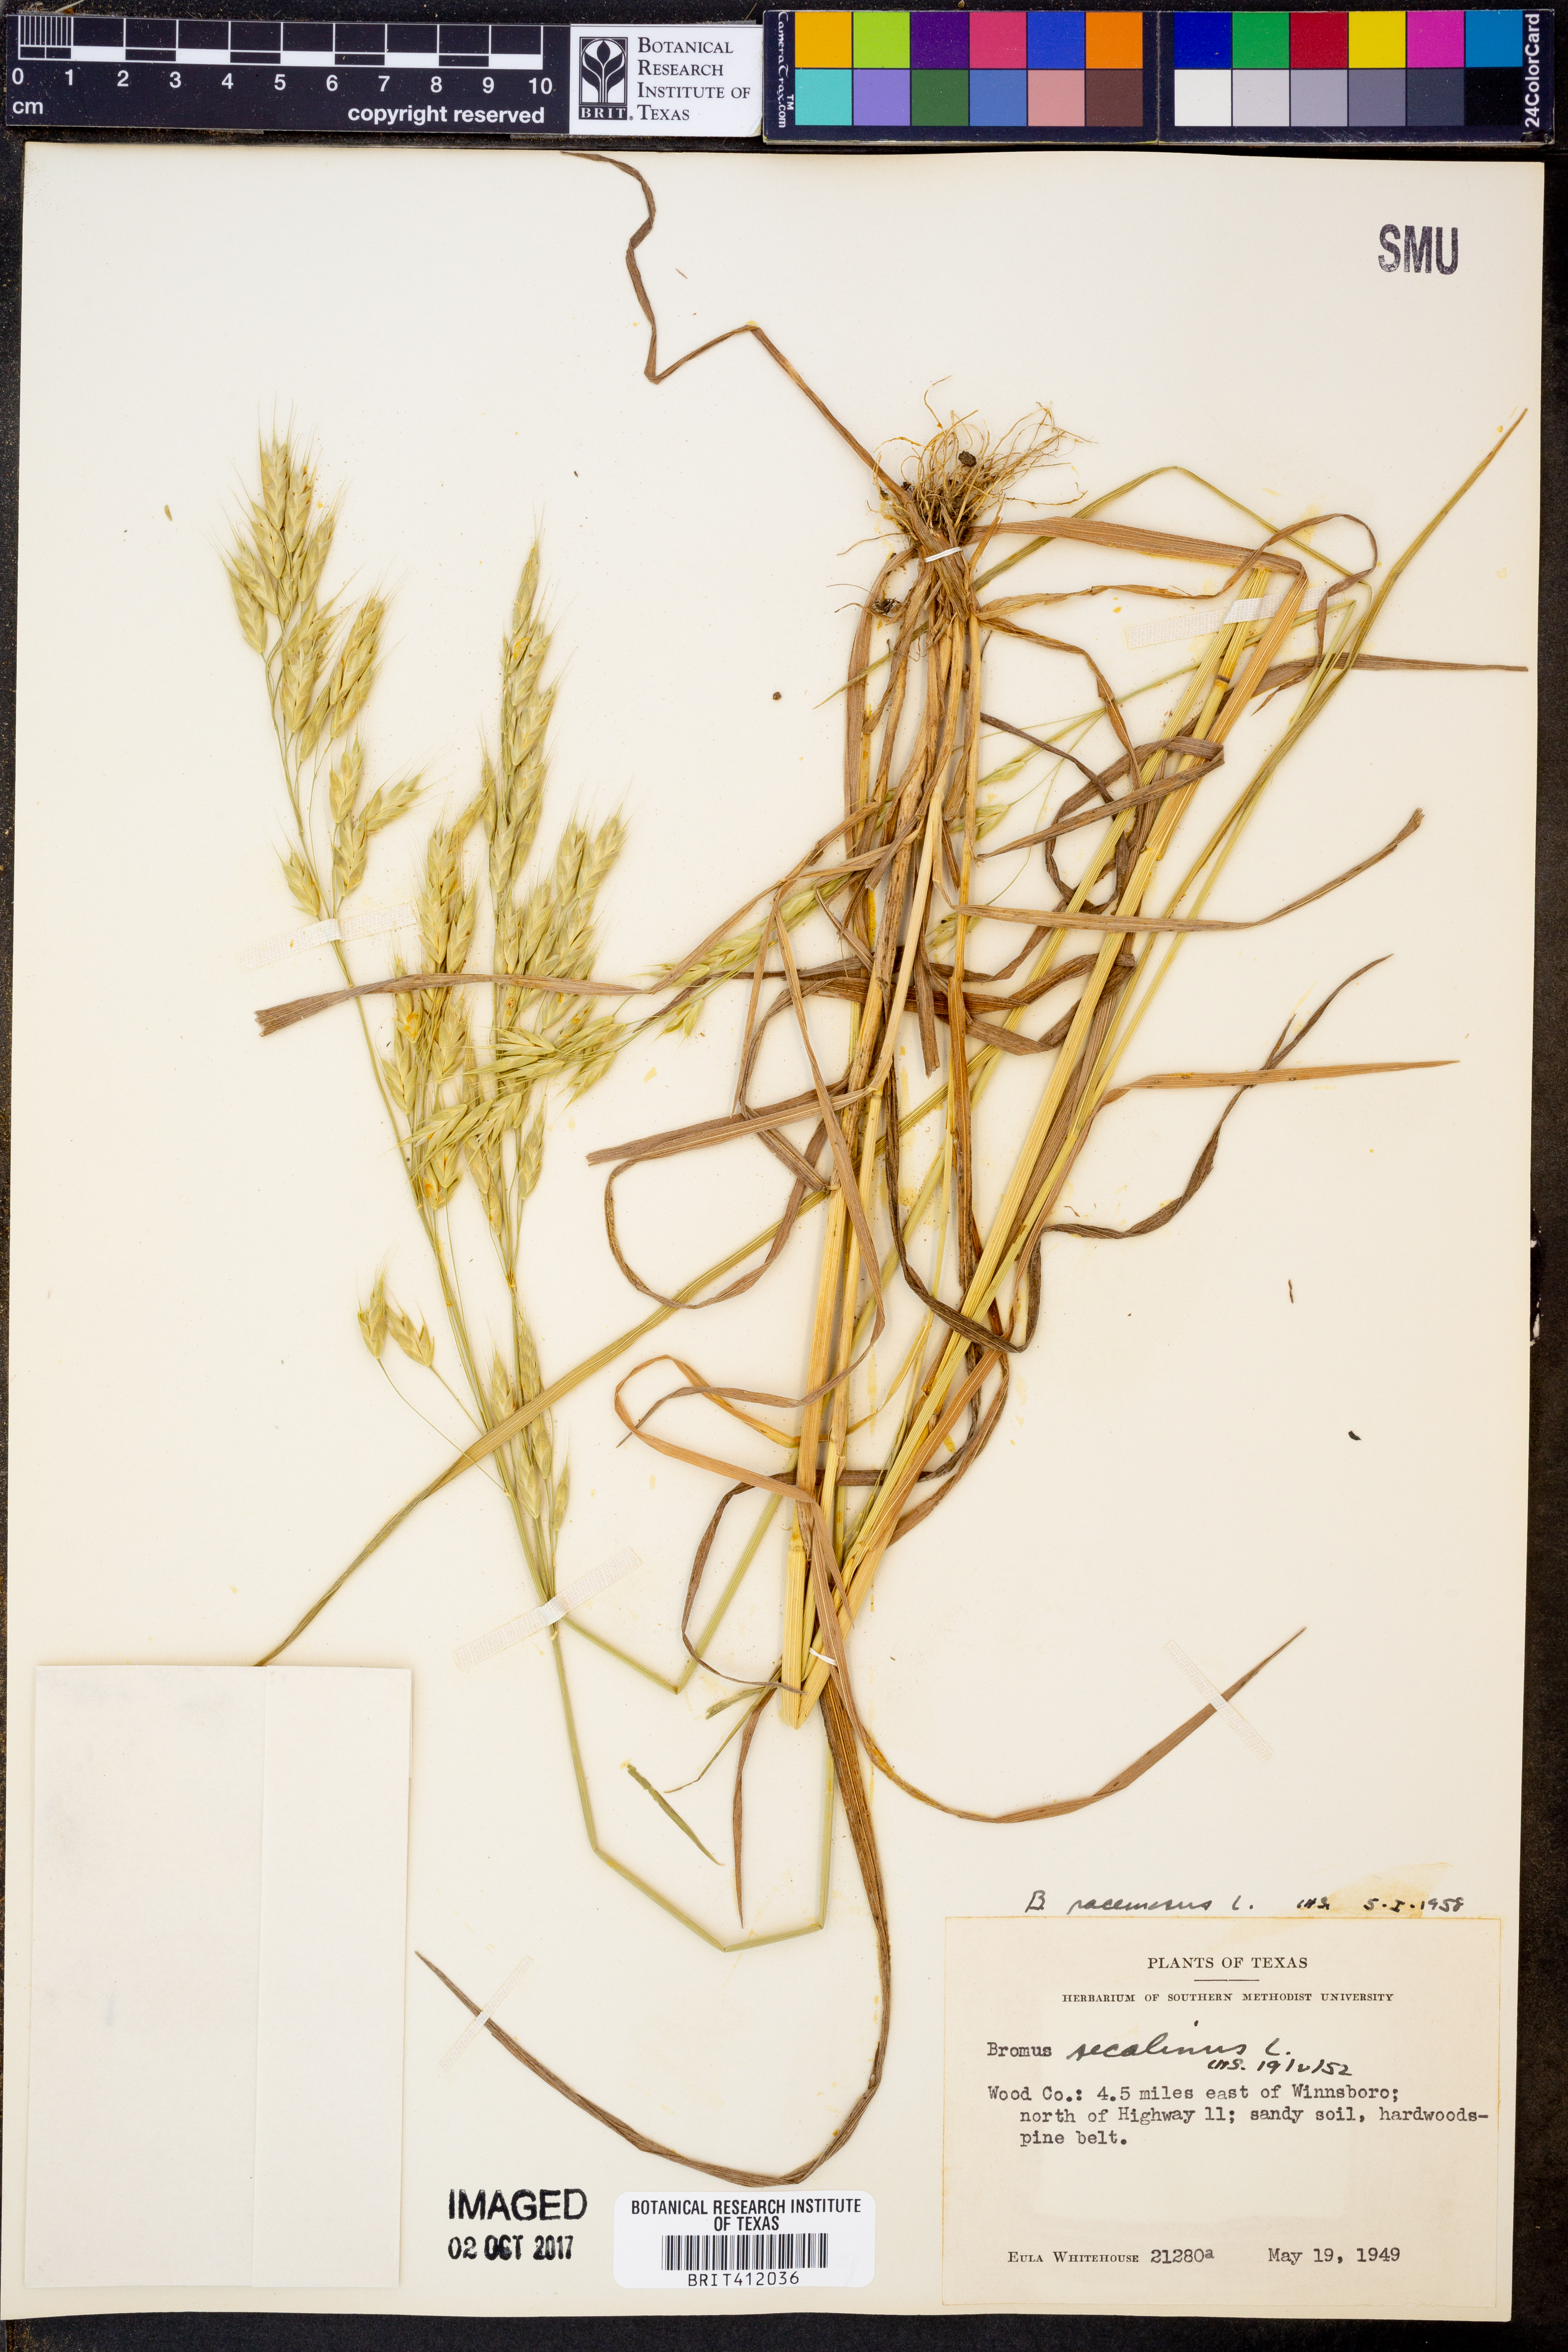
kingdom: Plantae
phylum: Tracheophyta
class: Liliopsida
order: Poales
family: Poaceae
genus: Bromus
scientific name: Bromus racemosus
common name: Bald brome
